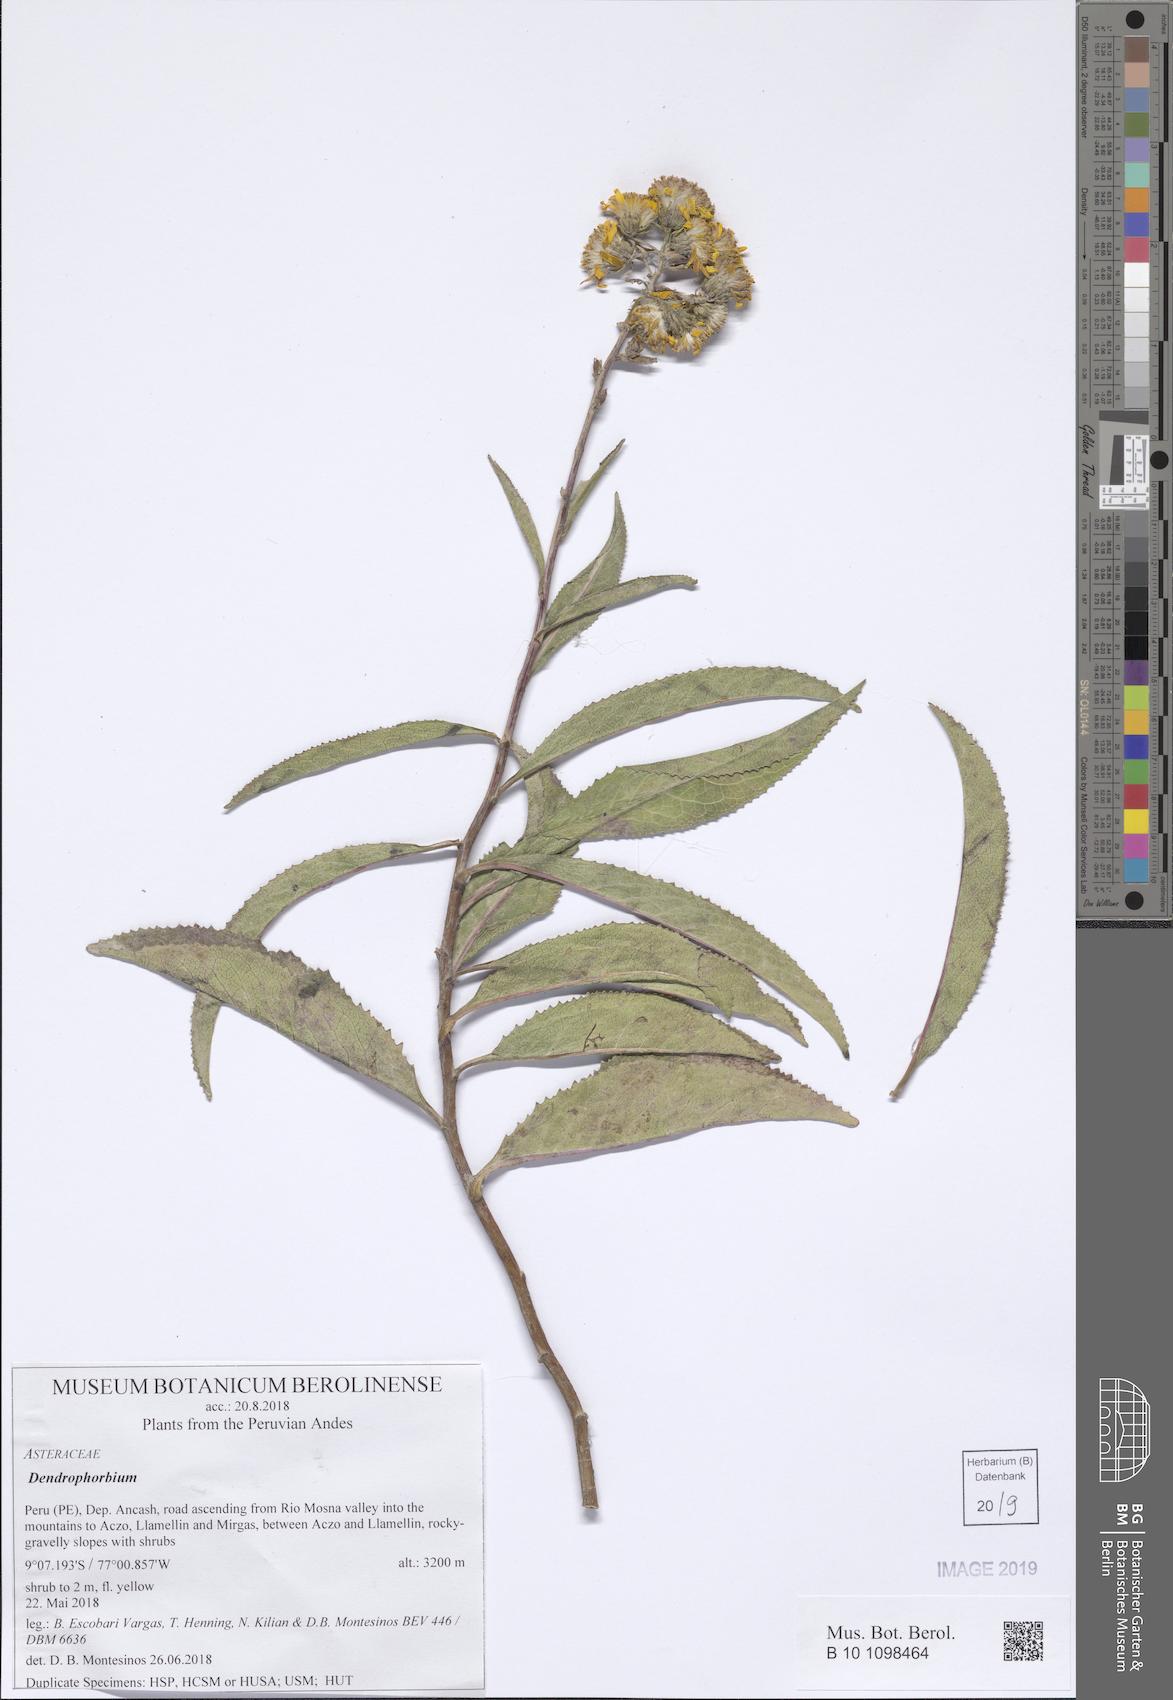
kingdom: Plantae
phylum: Tracheophyta
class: Magnoliopsida
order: Asterales
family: Asteraceae
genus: Dendrophorbium
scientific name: Dendrophorbium elatum
